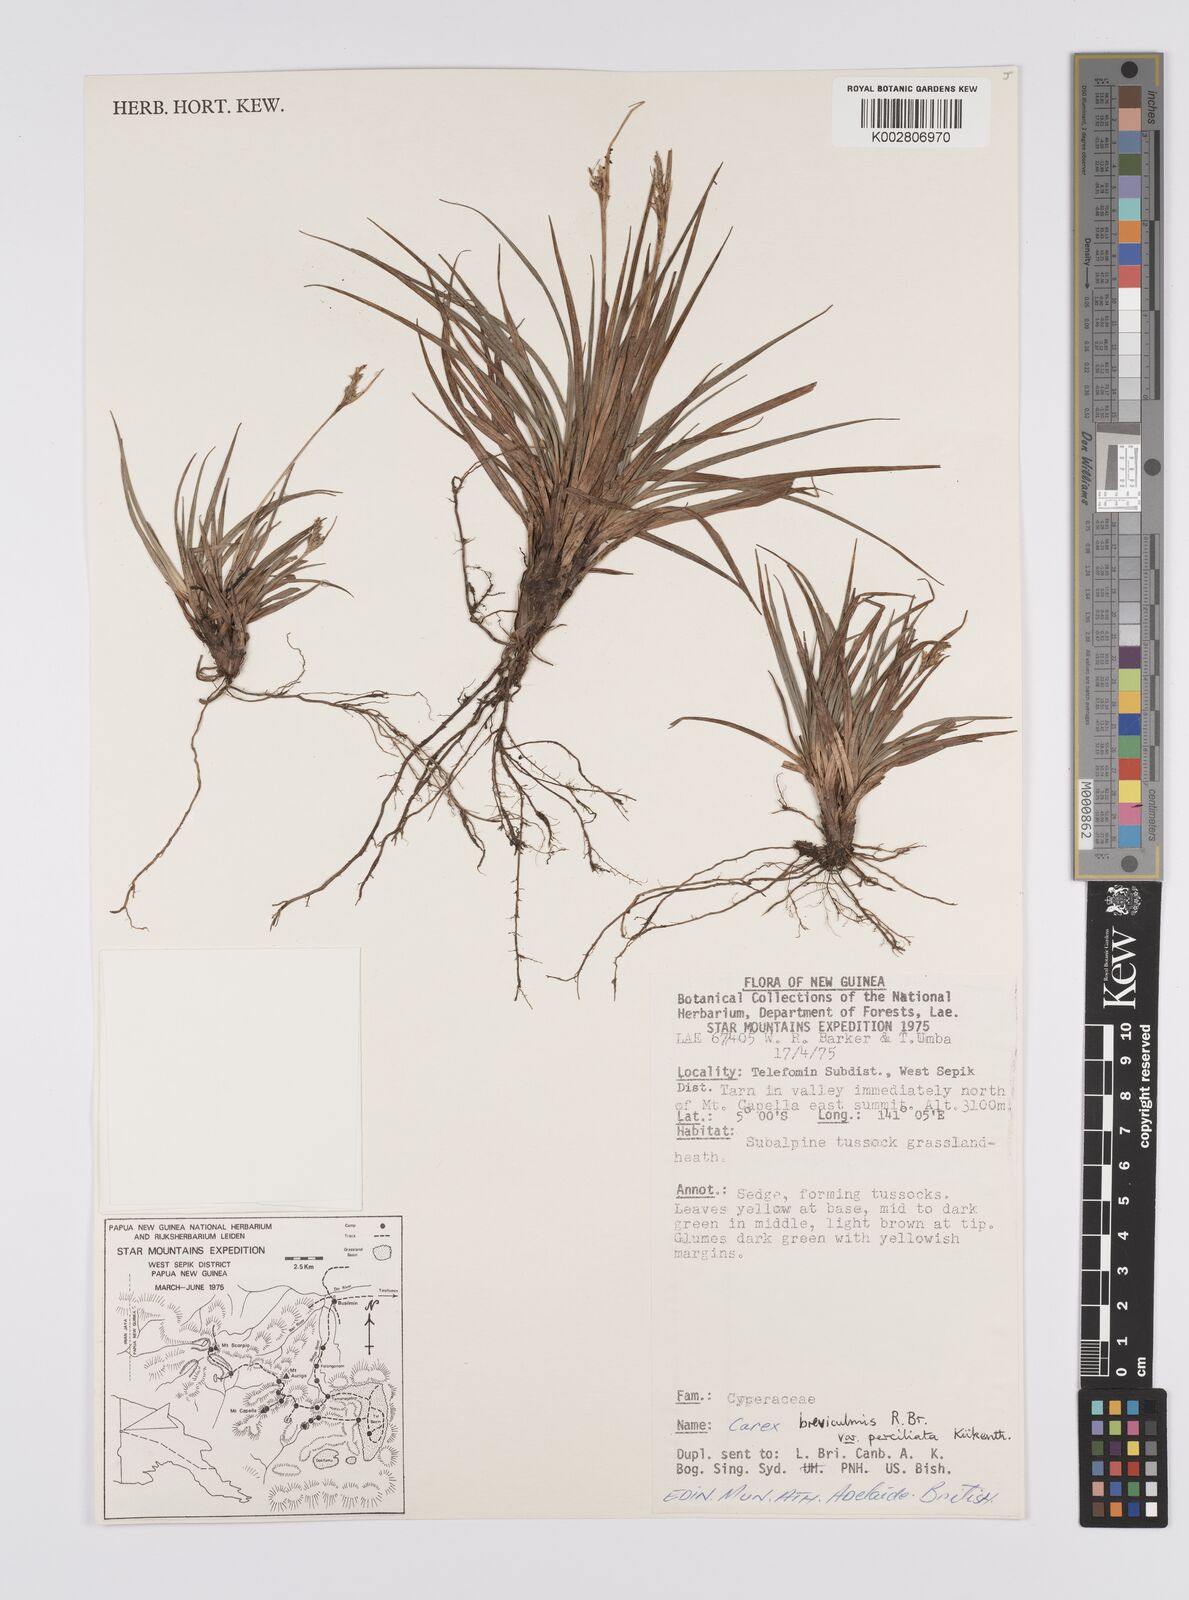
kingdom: Plantae
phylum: Tracheophyta
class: Liliopsida
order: Poales
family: Cyperaceae
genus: Carex
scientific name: Carex breviculmis
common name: Asian shortstem sedge
